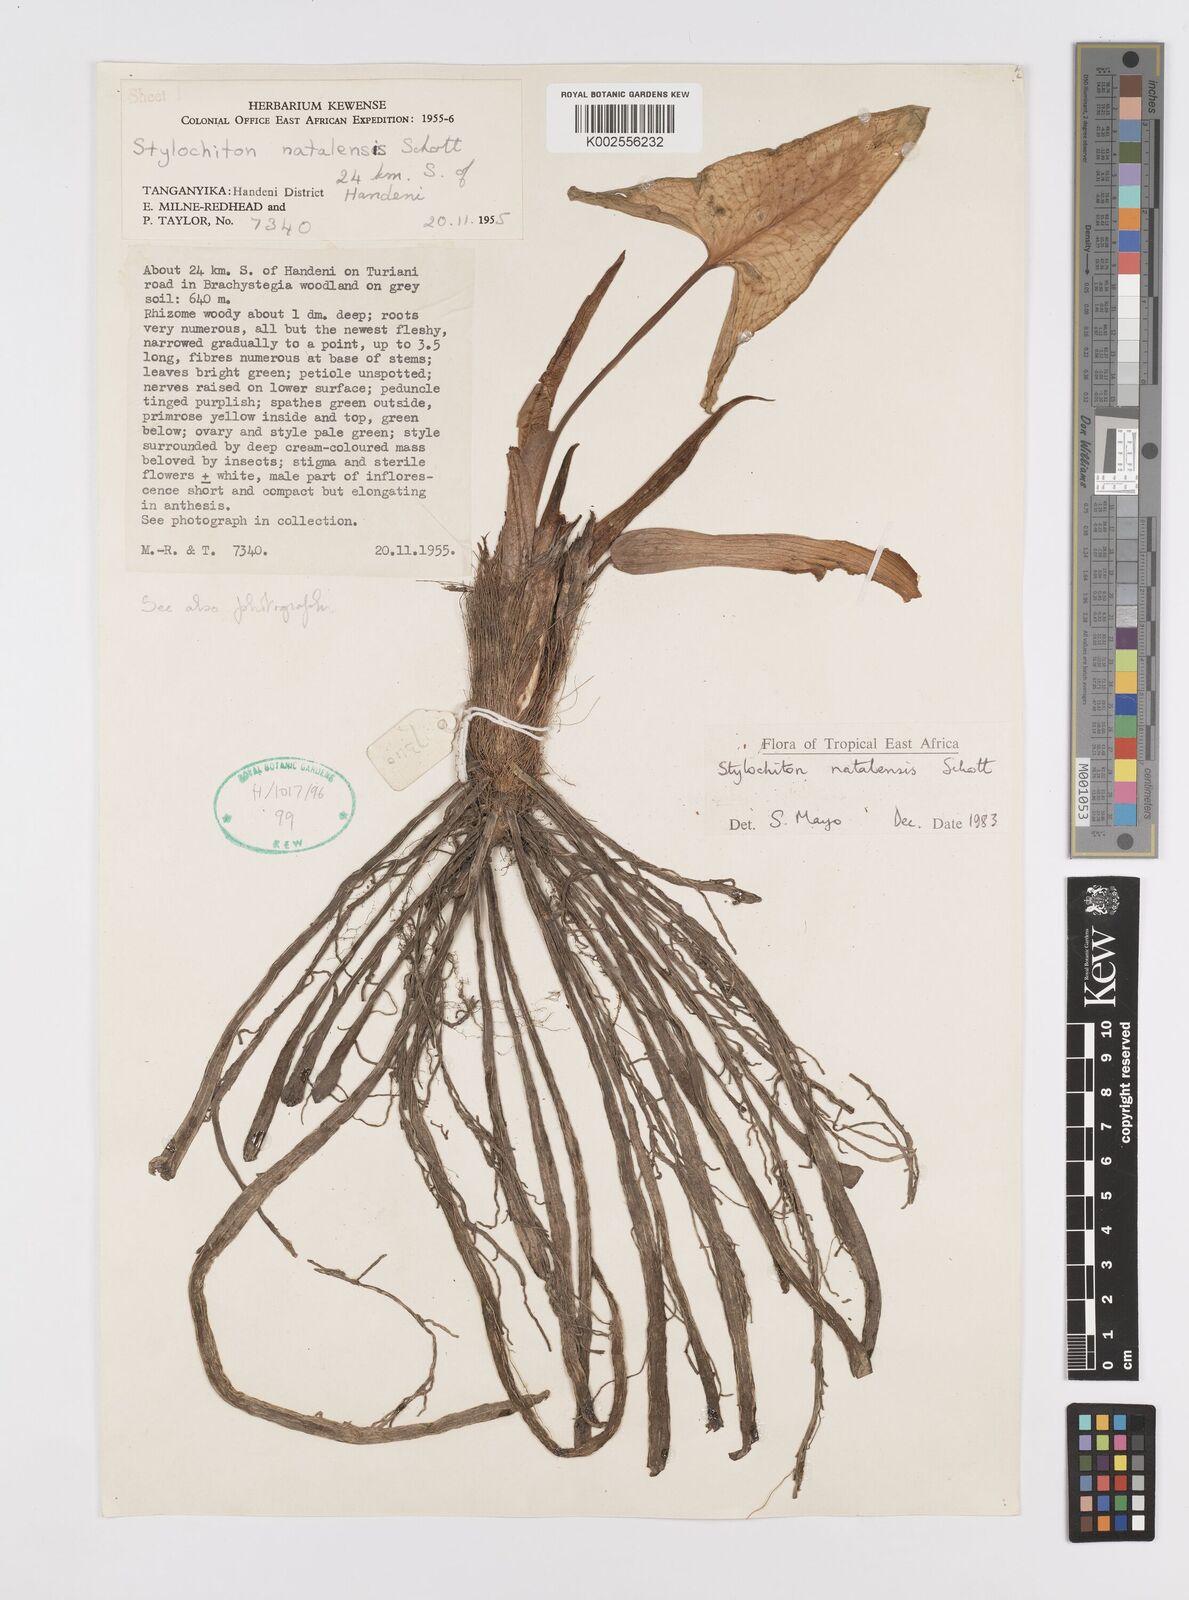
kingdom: Plantae
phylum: Tracheophyta
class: Liliopsida
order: Alismatales
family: Araceae
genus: Stylochaeton
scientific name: Stylochaeton natalense
